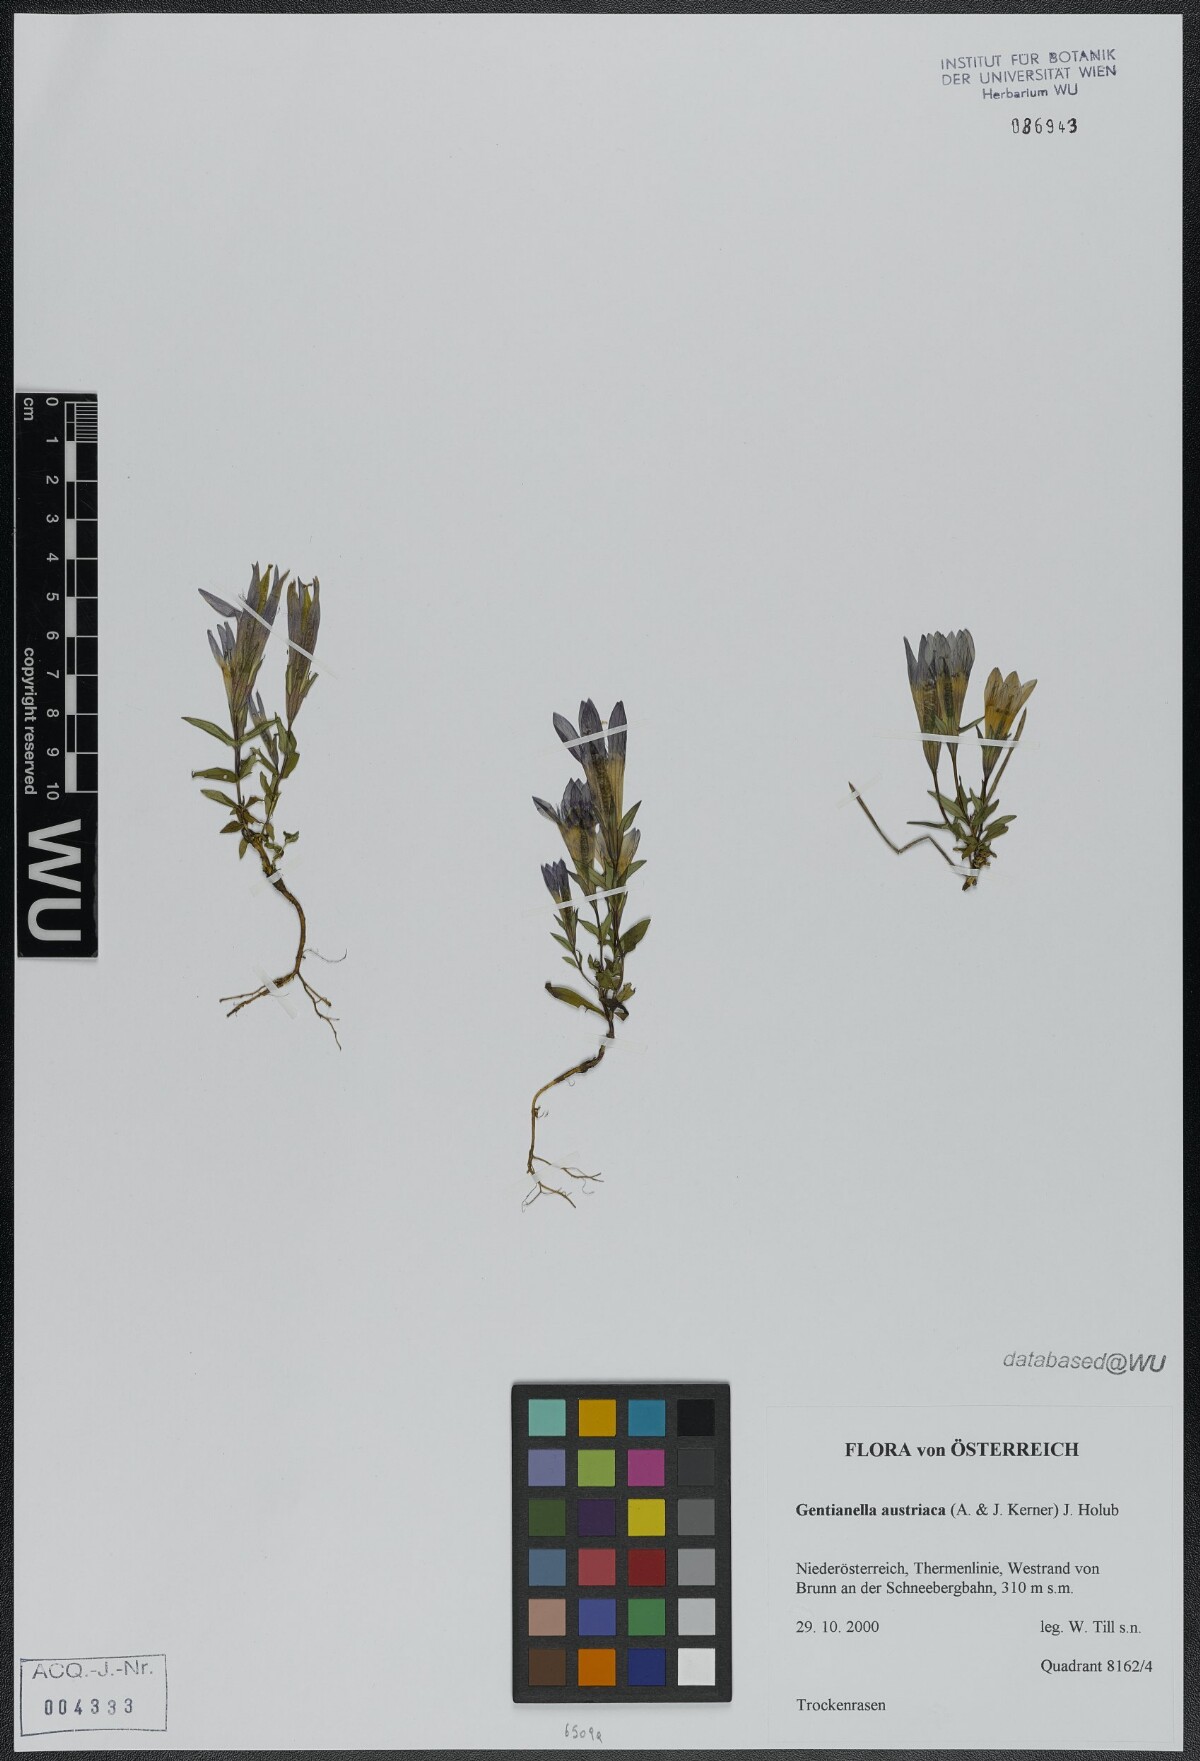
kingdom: Plantae
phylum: Tracheophyta
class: Magnoliopsida
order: Gentianales
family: Gentianaceae
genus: Gentianella
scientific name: Gentianella austriaca
